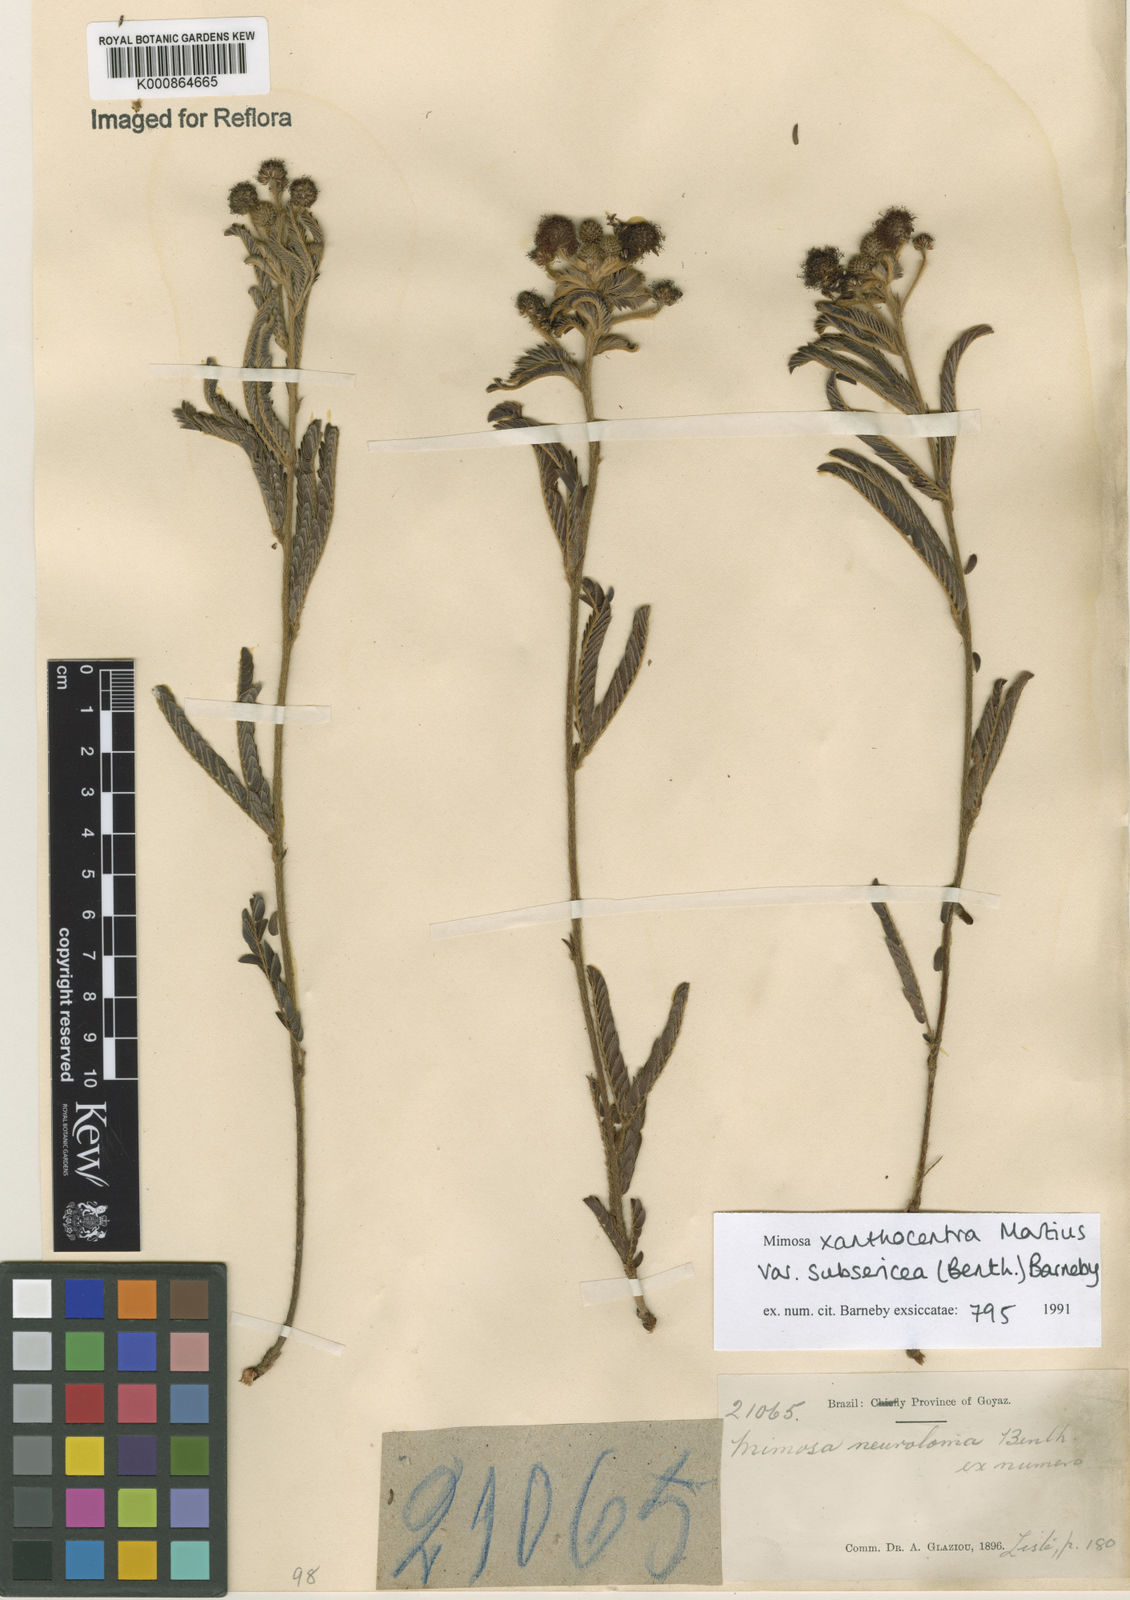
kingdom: Plantae
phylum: Tracheophyta
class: Magnoliopsida
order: Fabales
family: Fabaceae
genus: Mimosa
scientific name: Mimosa xanthocentra
